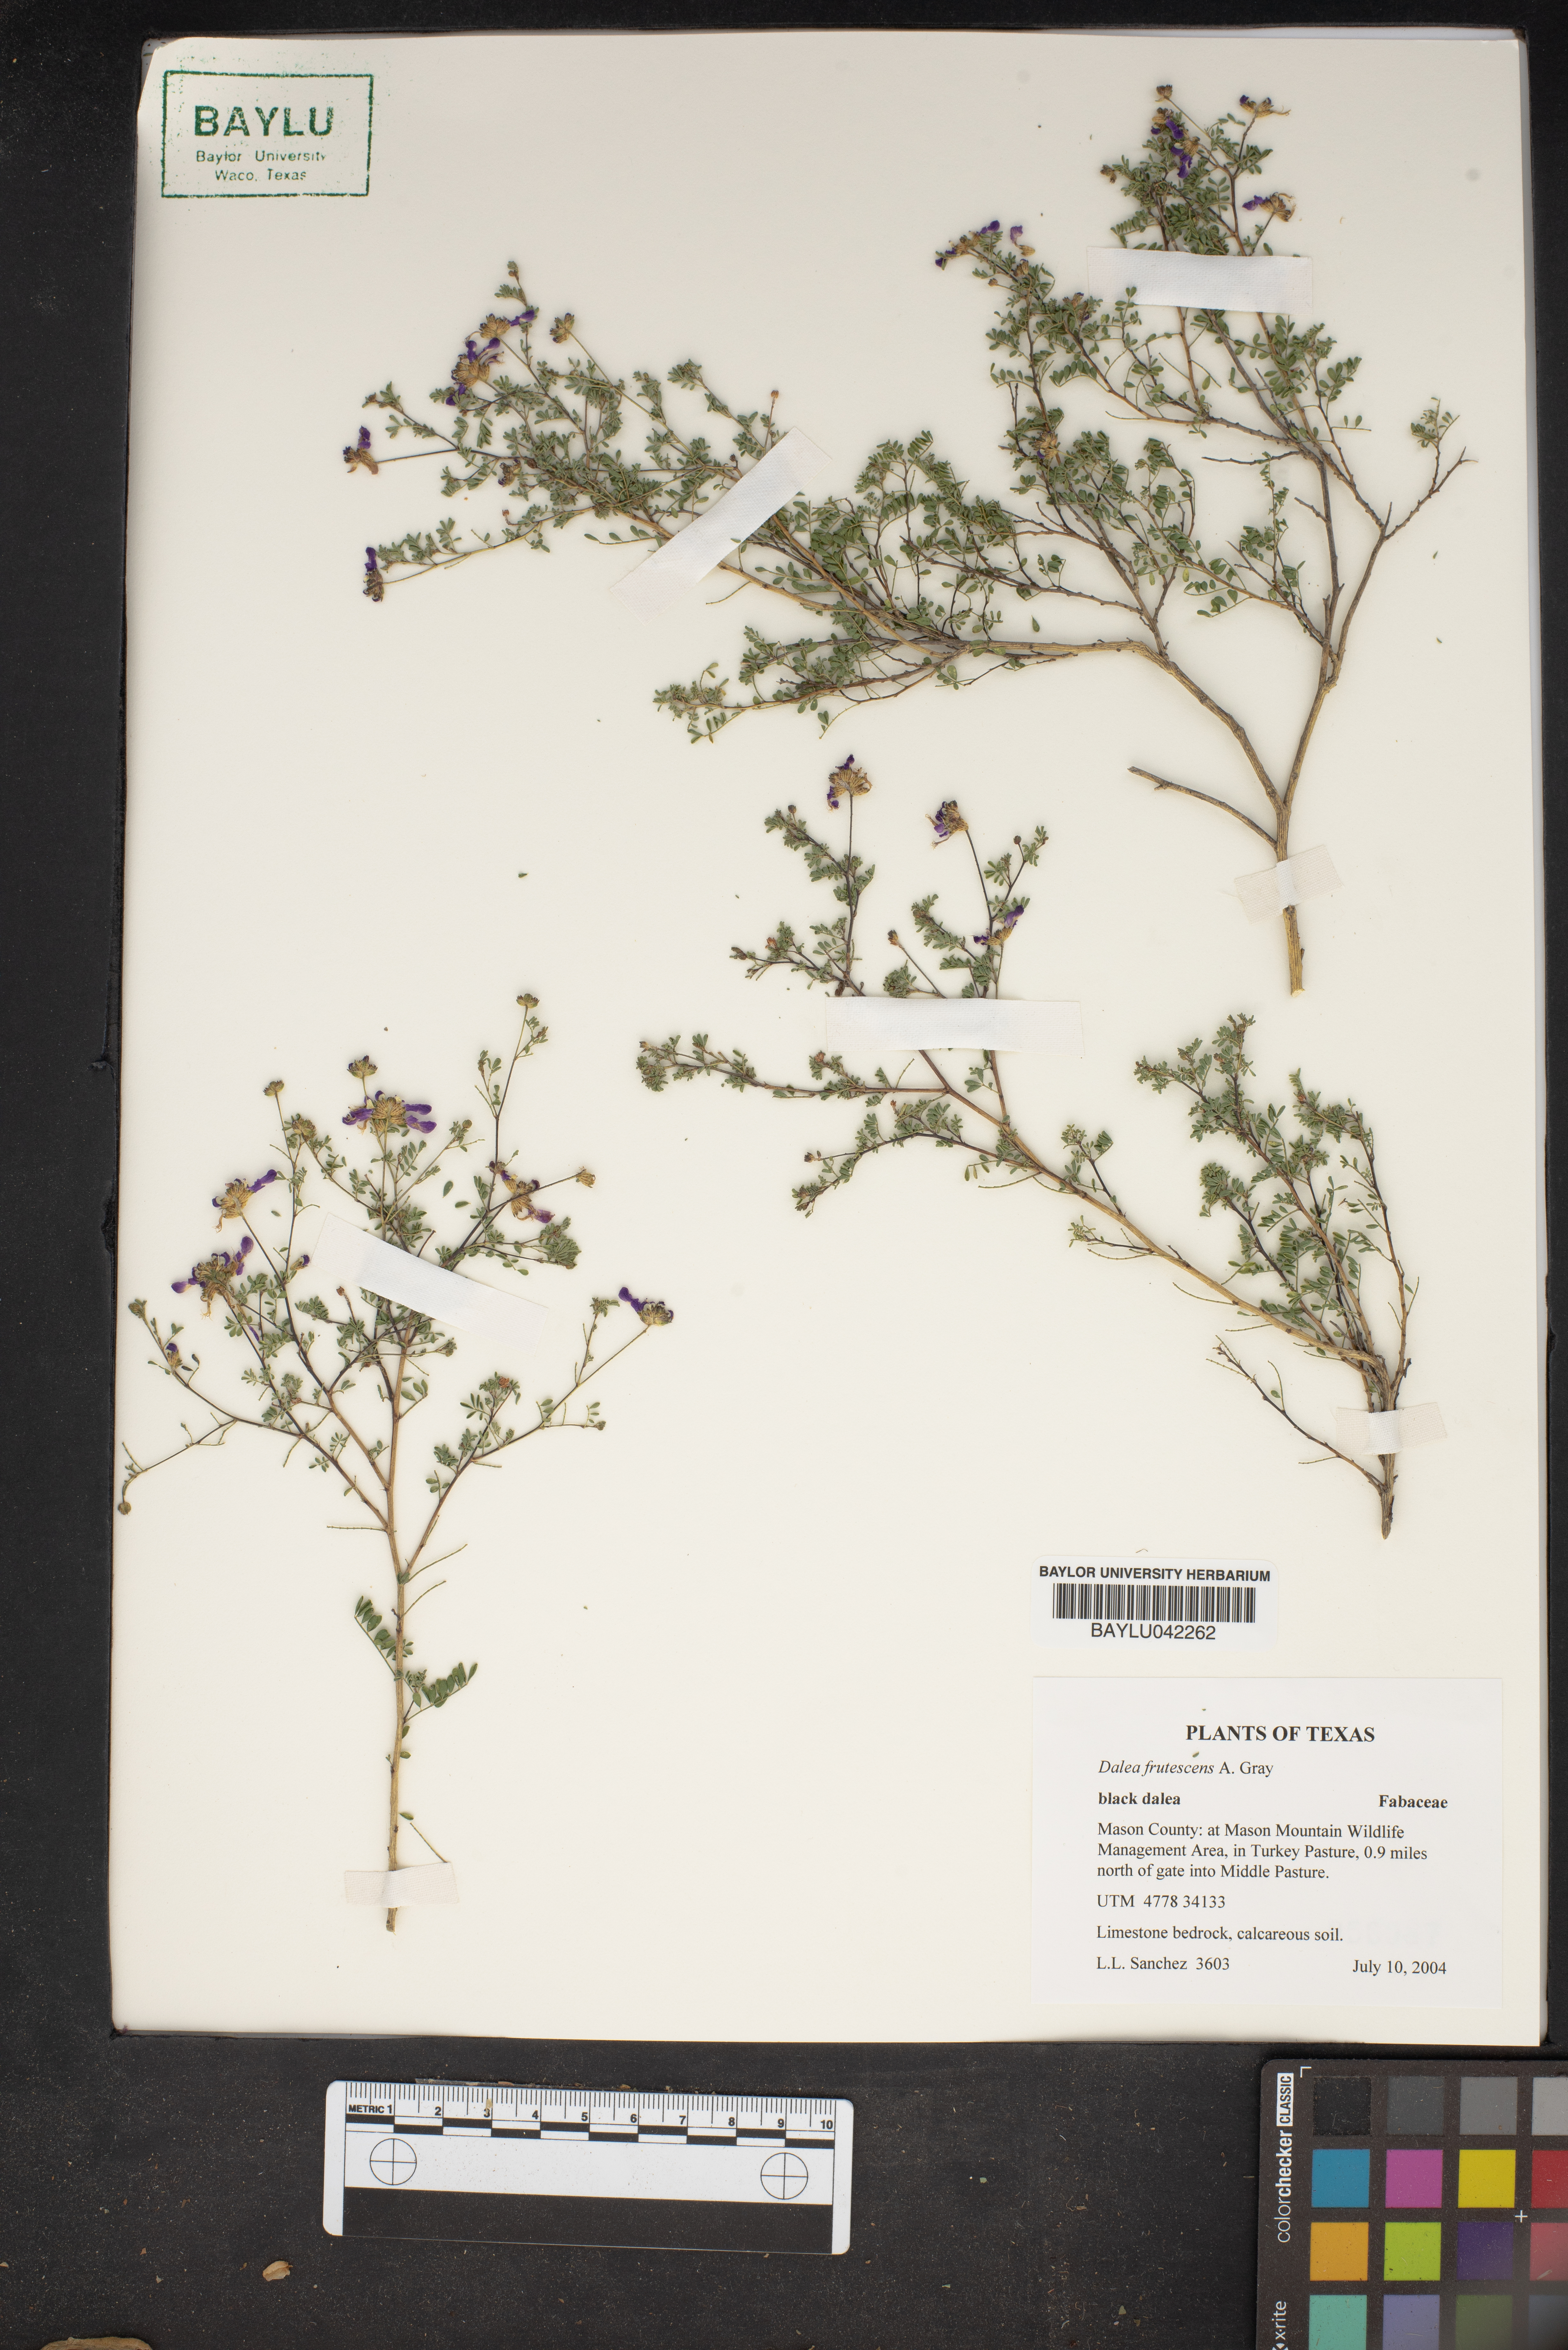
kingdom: Plantae
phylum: Tracheophyta
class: Magnoliopsida
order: Fabales
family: Fabaceae
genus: Dalea
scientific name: Dalea frutescens
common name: Black dalea
